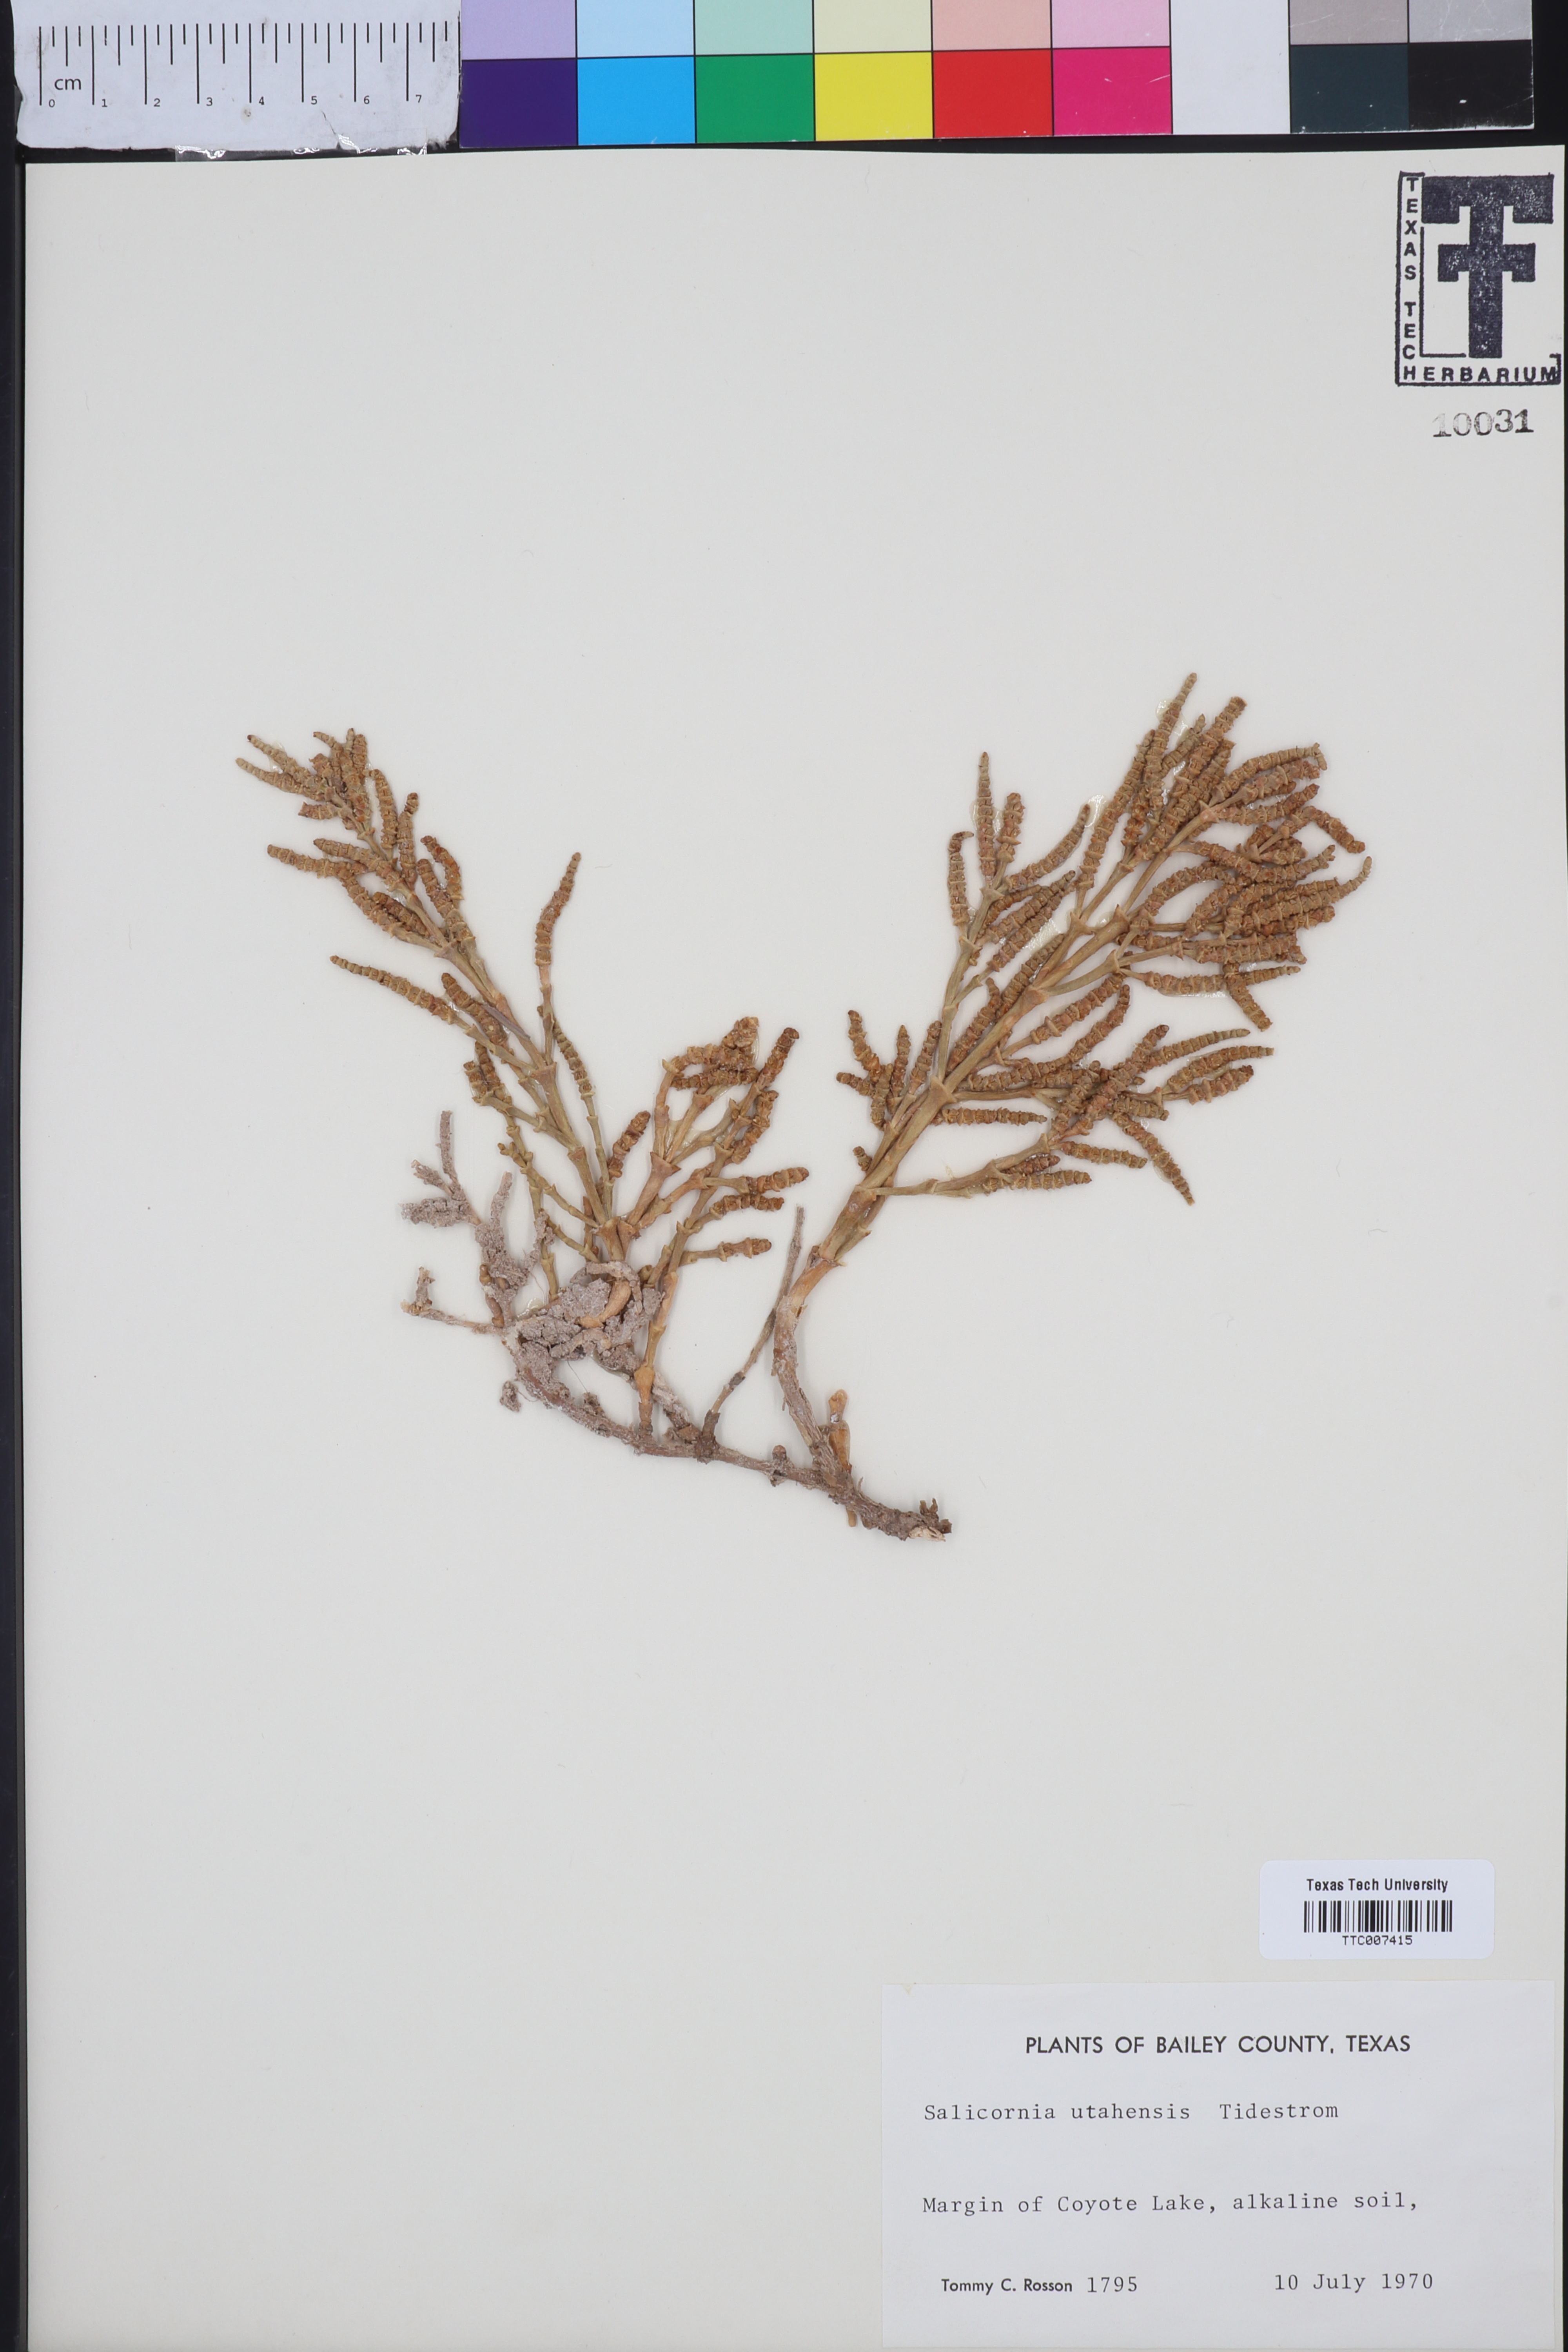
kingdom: Plantae
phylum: Tracheophyta
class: Magnoliopsida
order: Caryophyllales
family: Amaranthaceae
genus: Salicornia
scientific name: Salicornia utahensis
